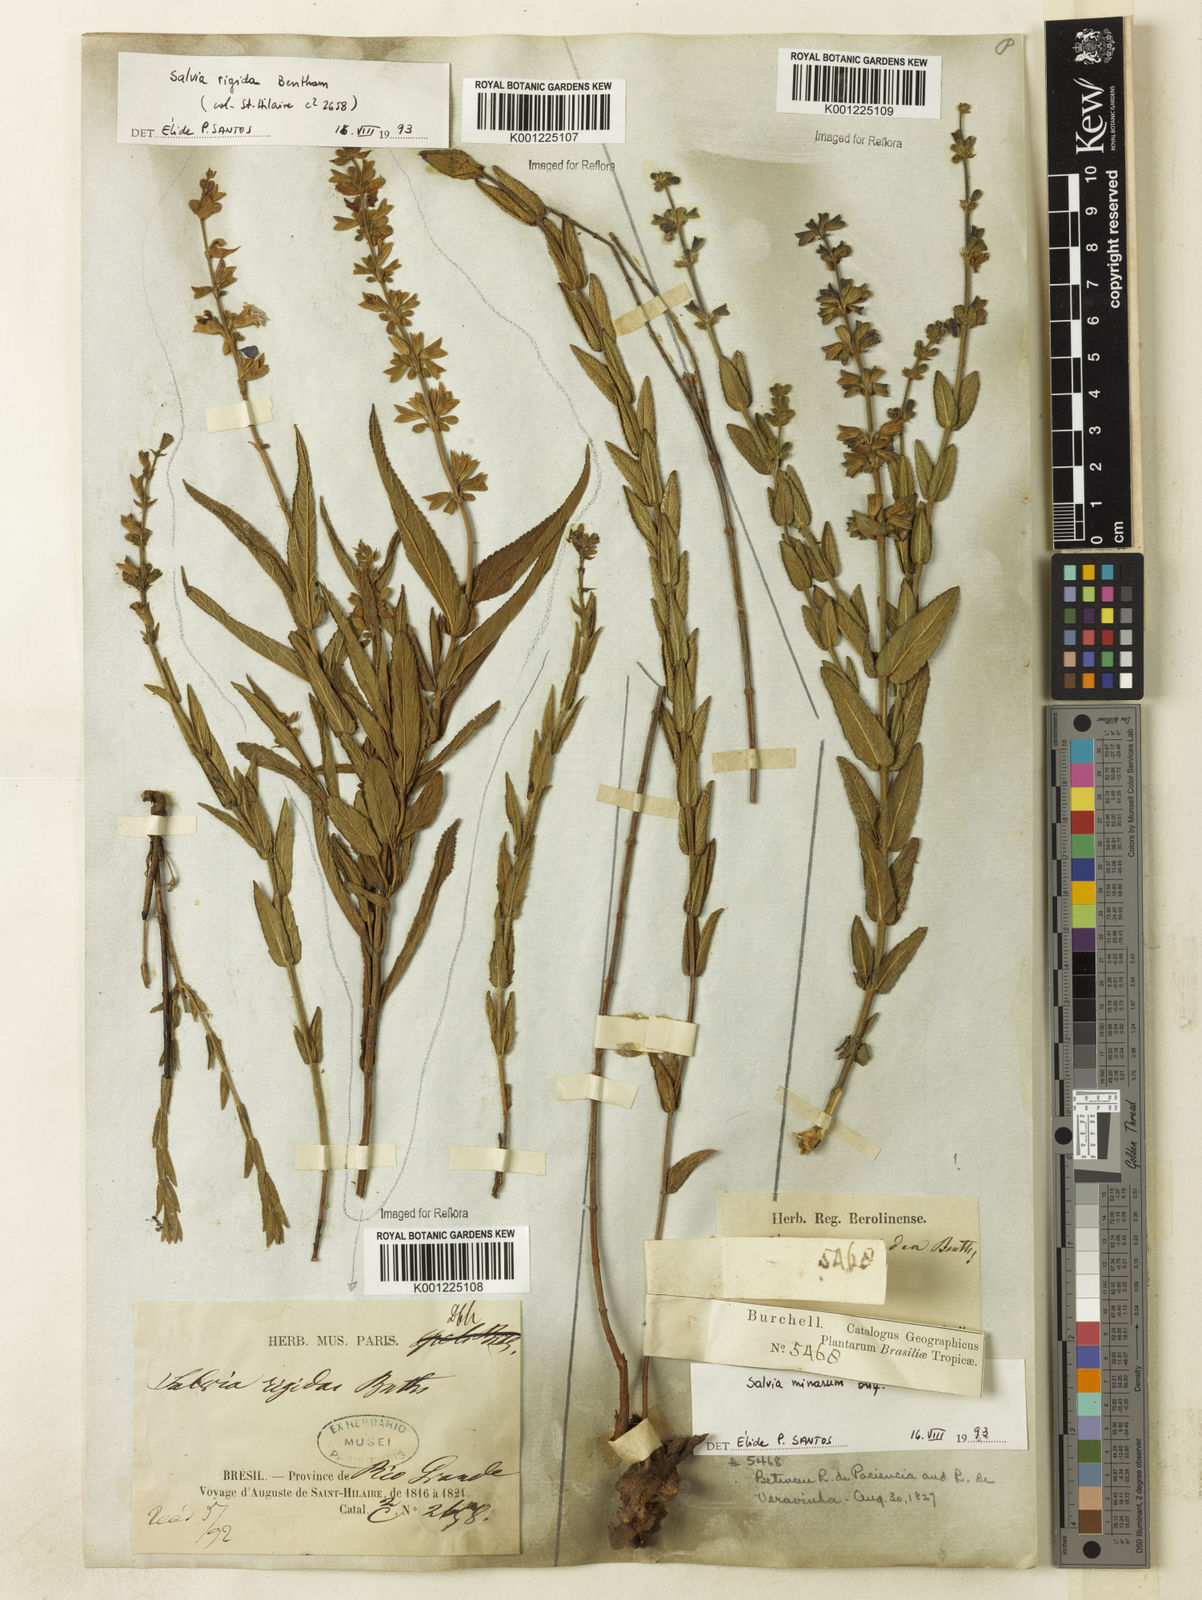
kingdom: Plantae
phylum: Tracheophyta
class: Magnoliopsida
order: Lamiales
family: Lamiaceae
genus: Salvia
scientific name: Salvia minarum
